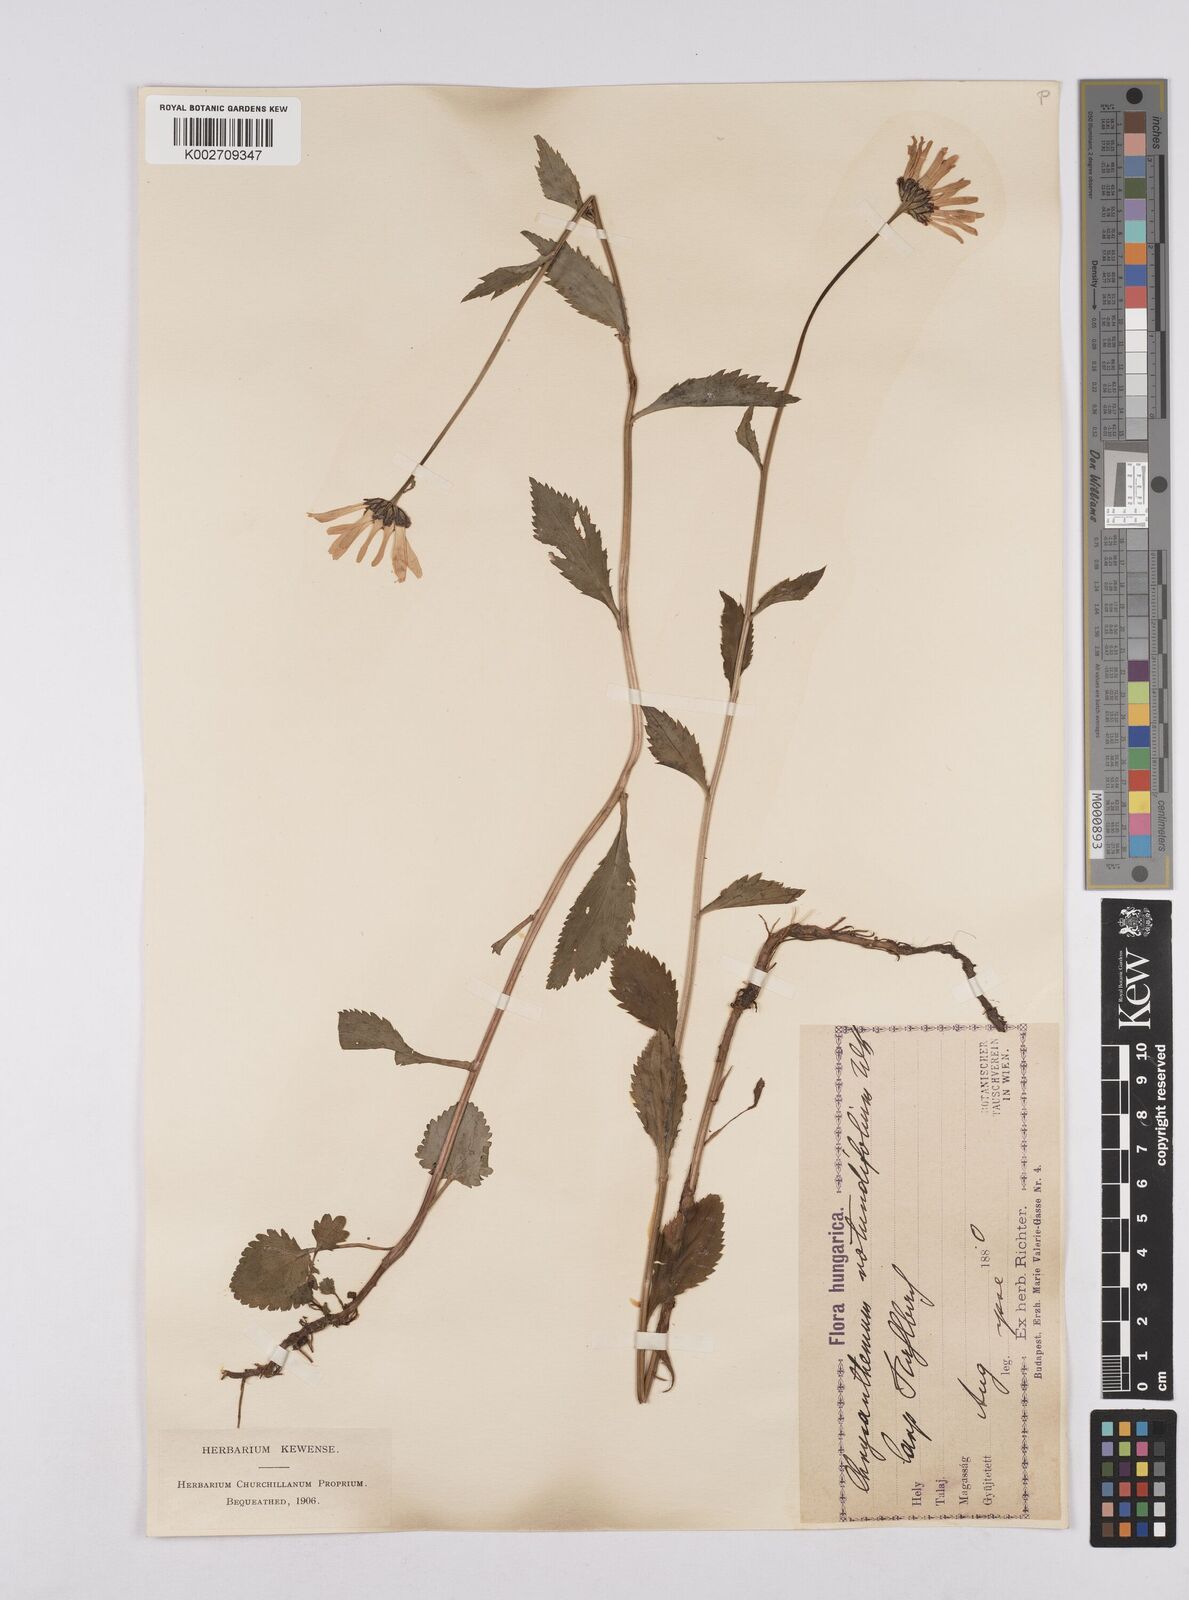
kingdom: Plantae
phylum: Tracheophyta
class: Magnoliopsida
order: Asterales
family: Asteraceae
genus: Leucanthemum
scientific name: Leucanthemum rotundifolium
